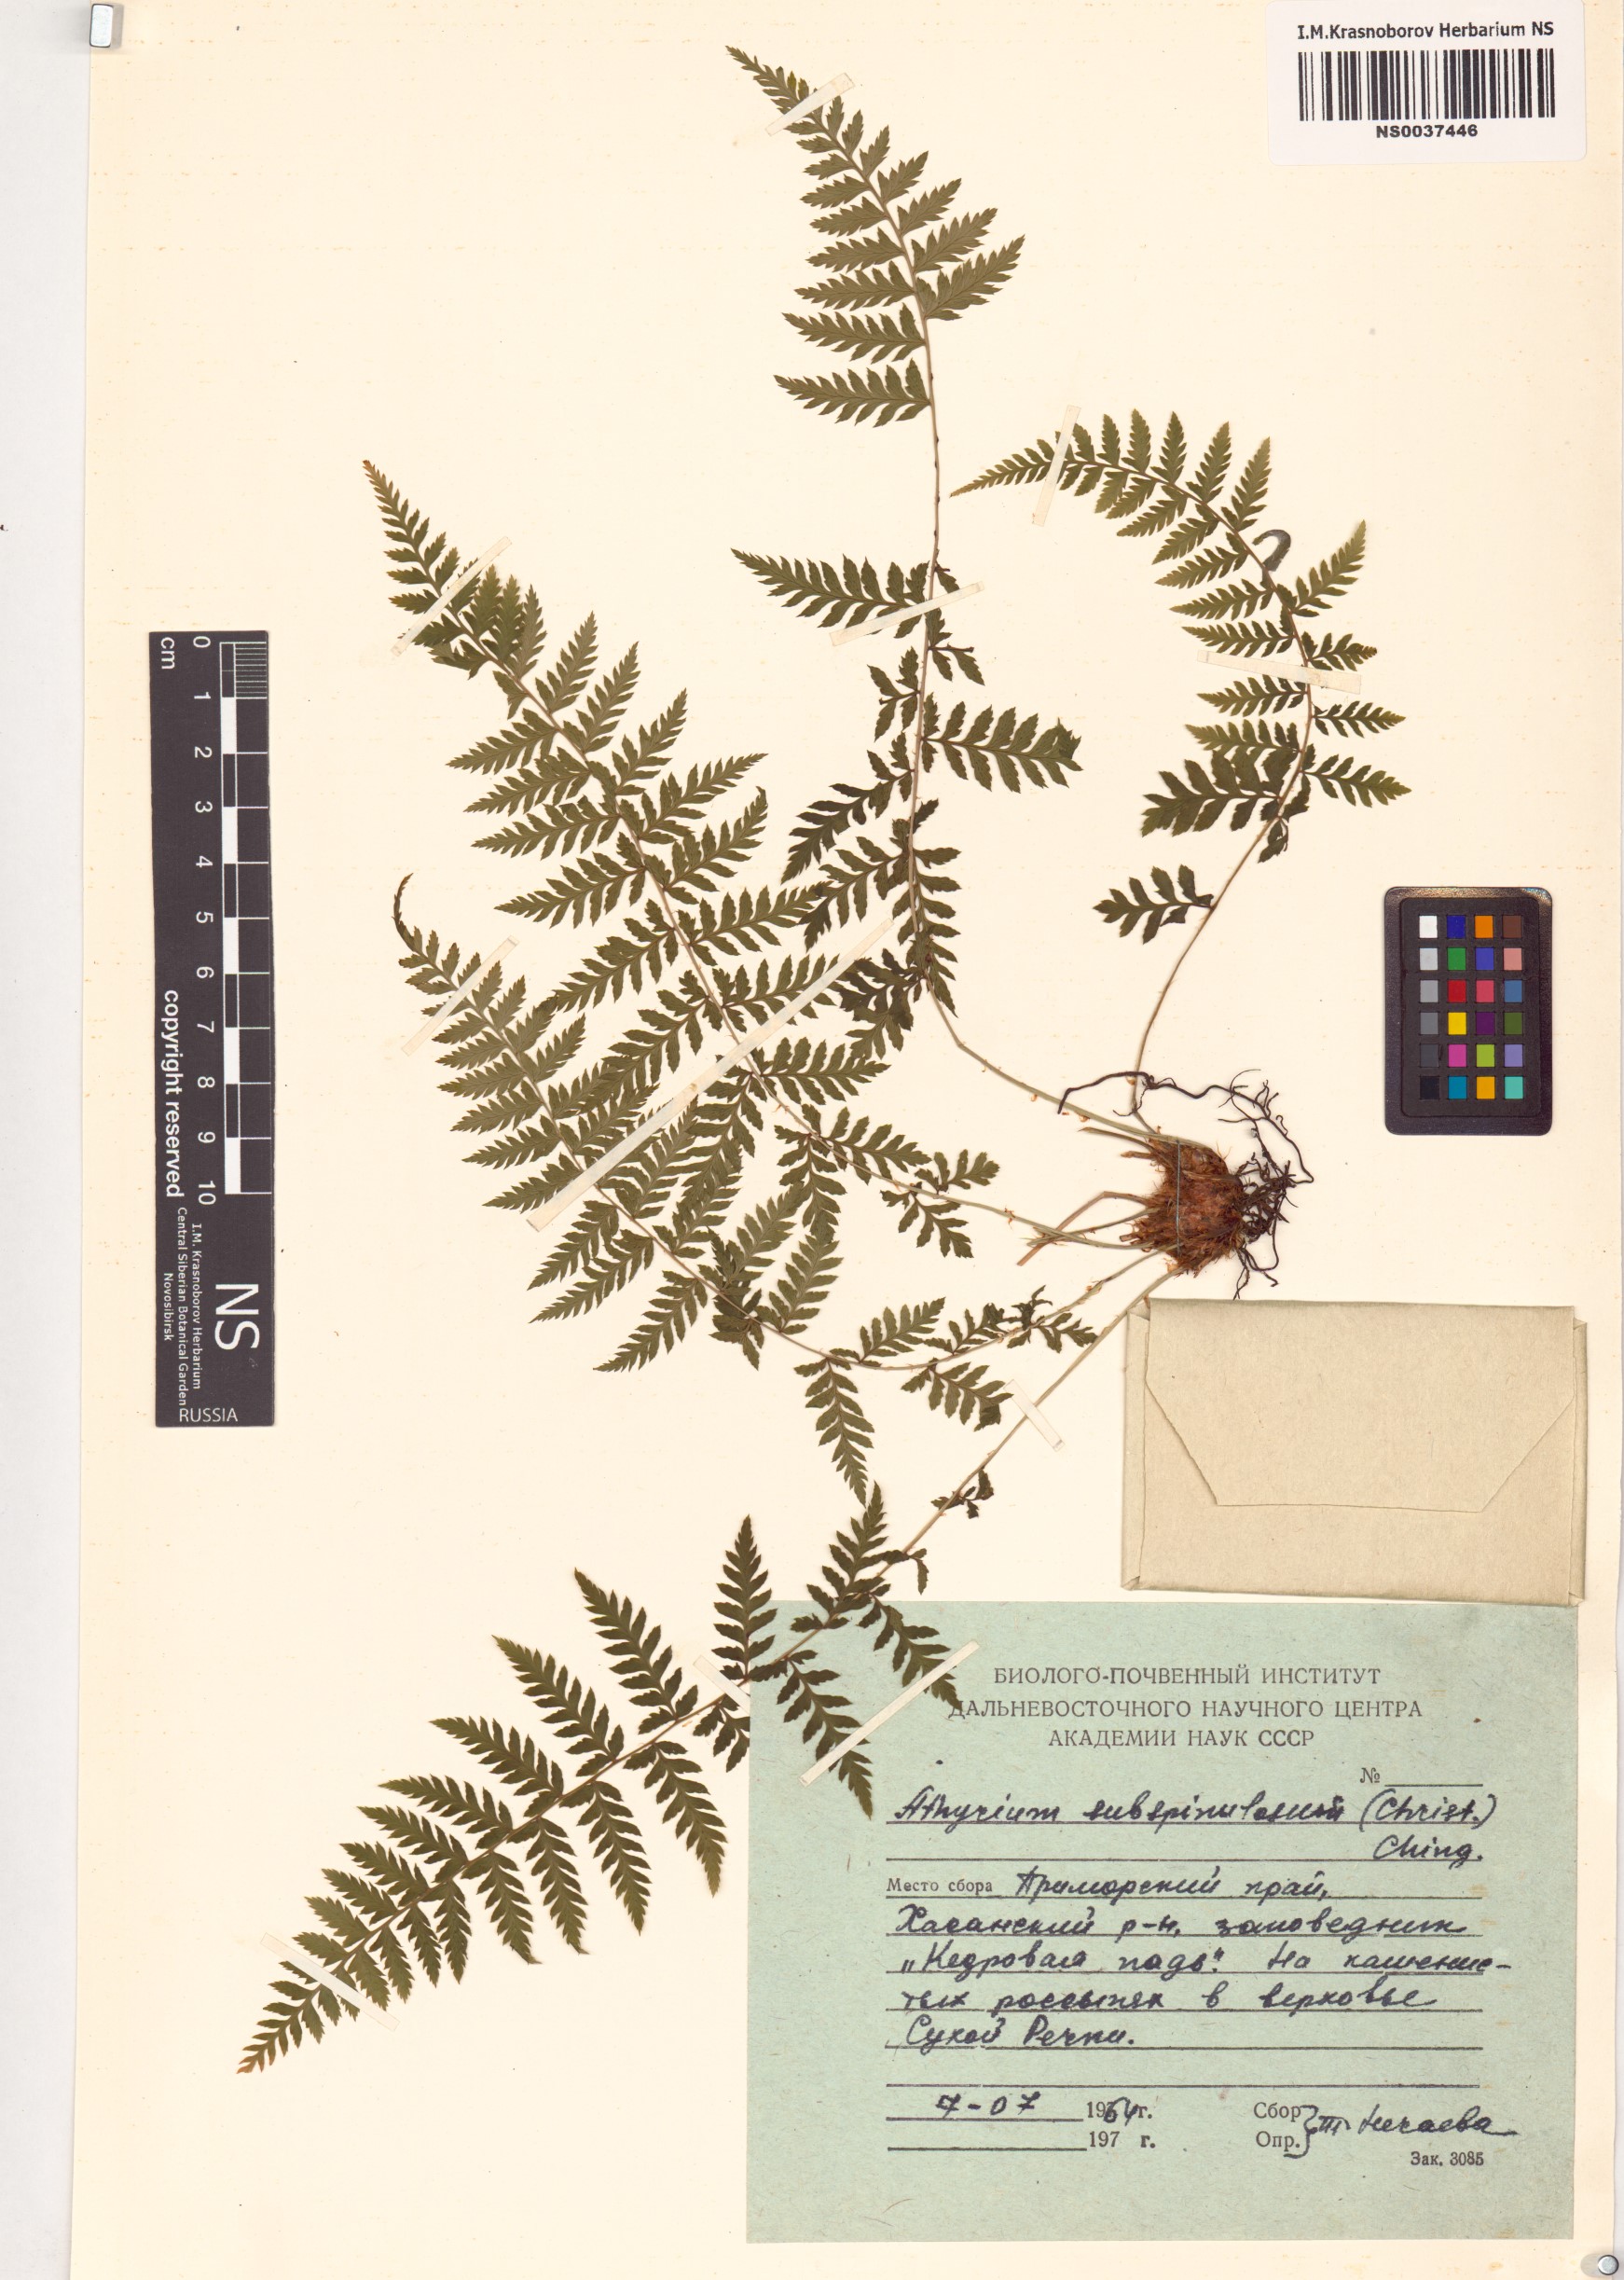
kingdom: Plantae
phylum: Tracheophyta
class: Polypodiopsida
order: Polypodiales
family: Athyriaceae
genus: Athyrium
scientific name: Athyrium yokoscense
